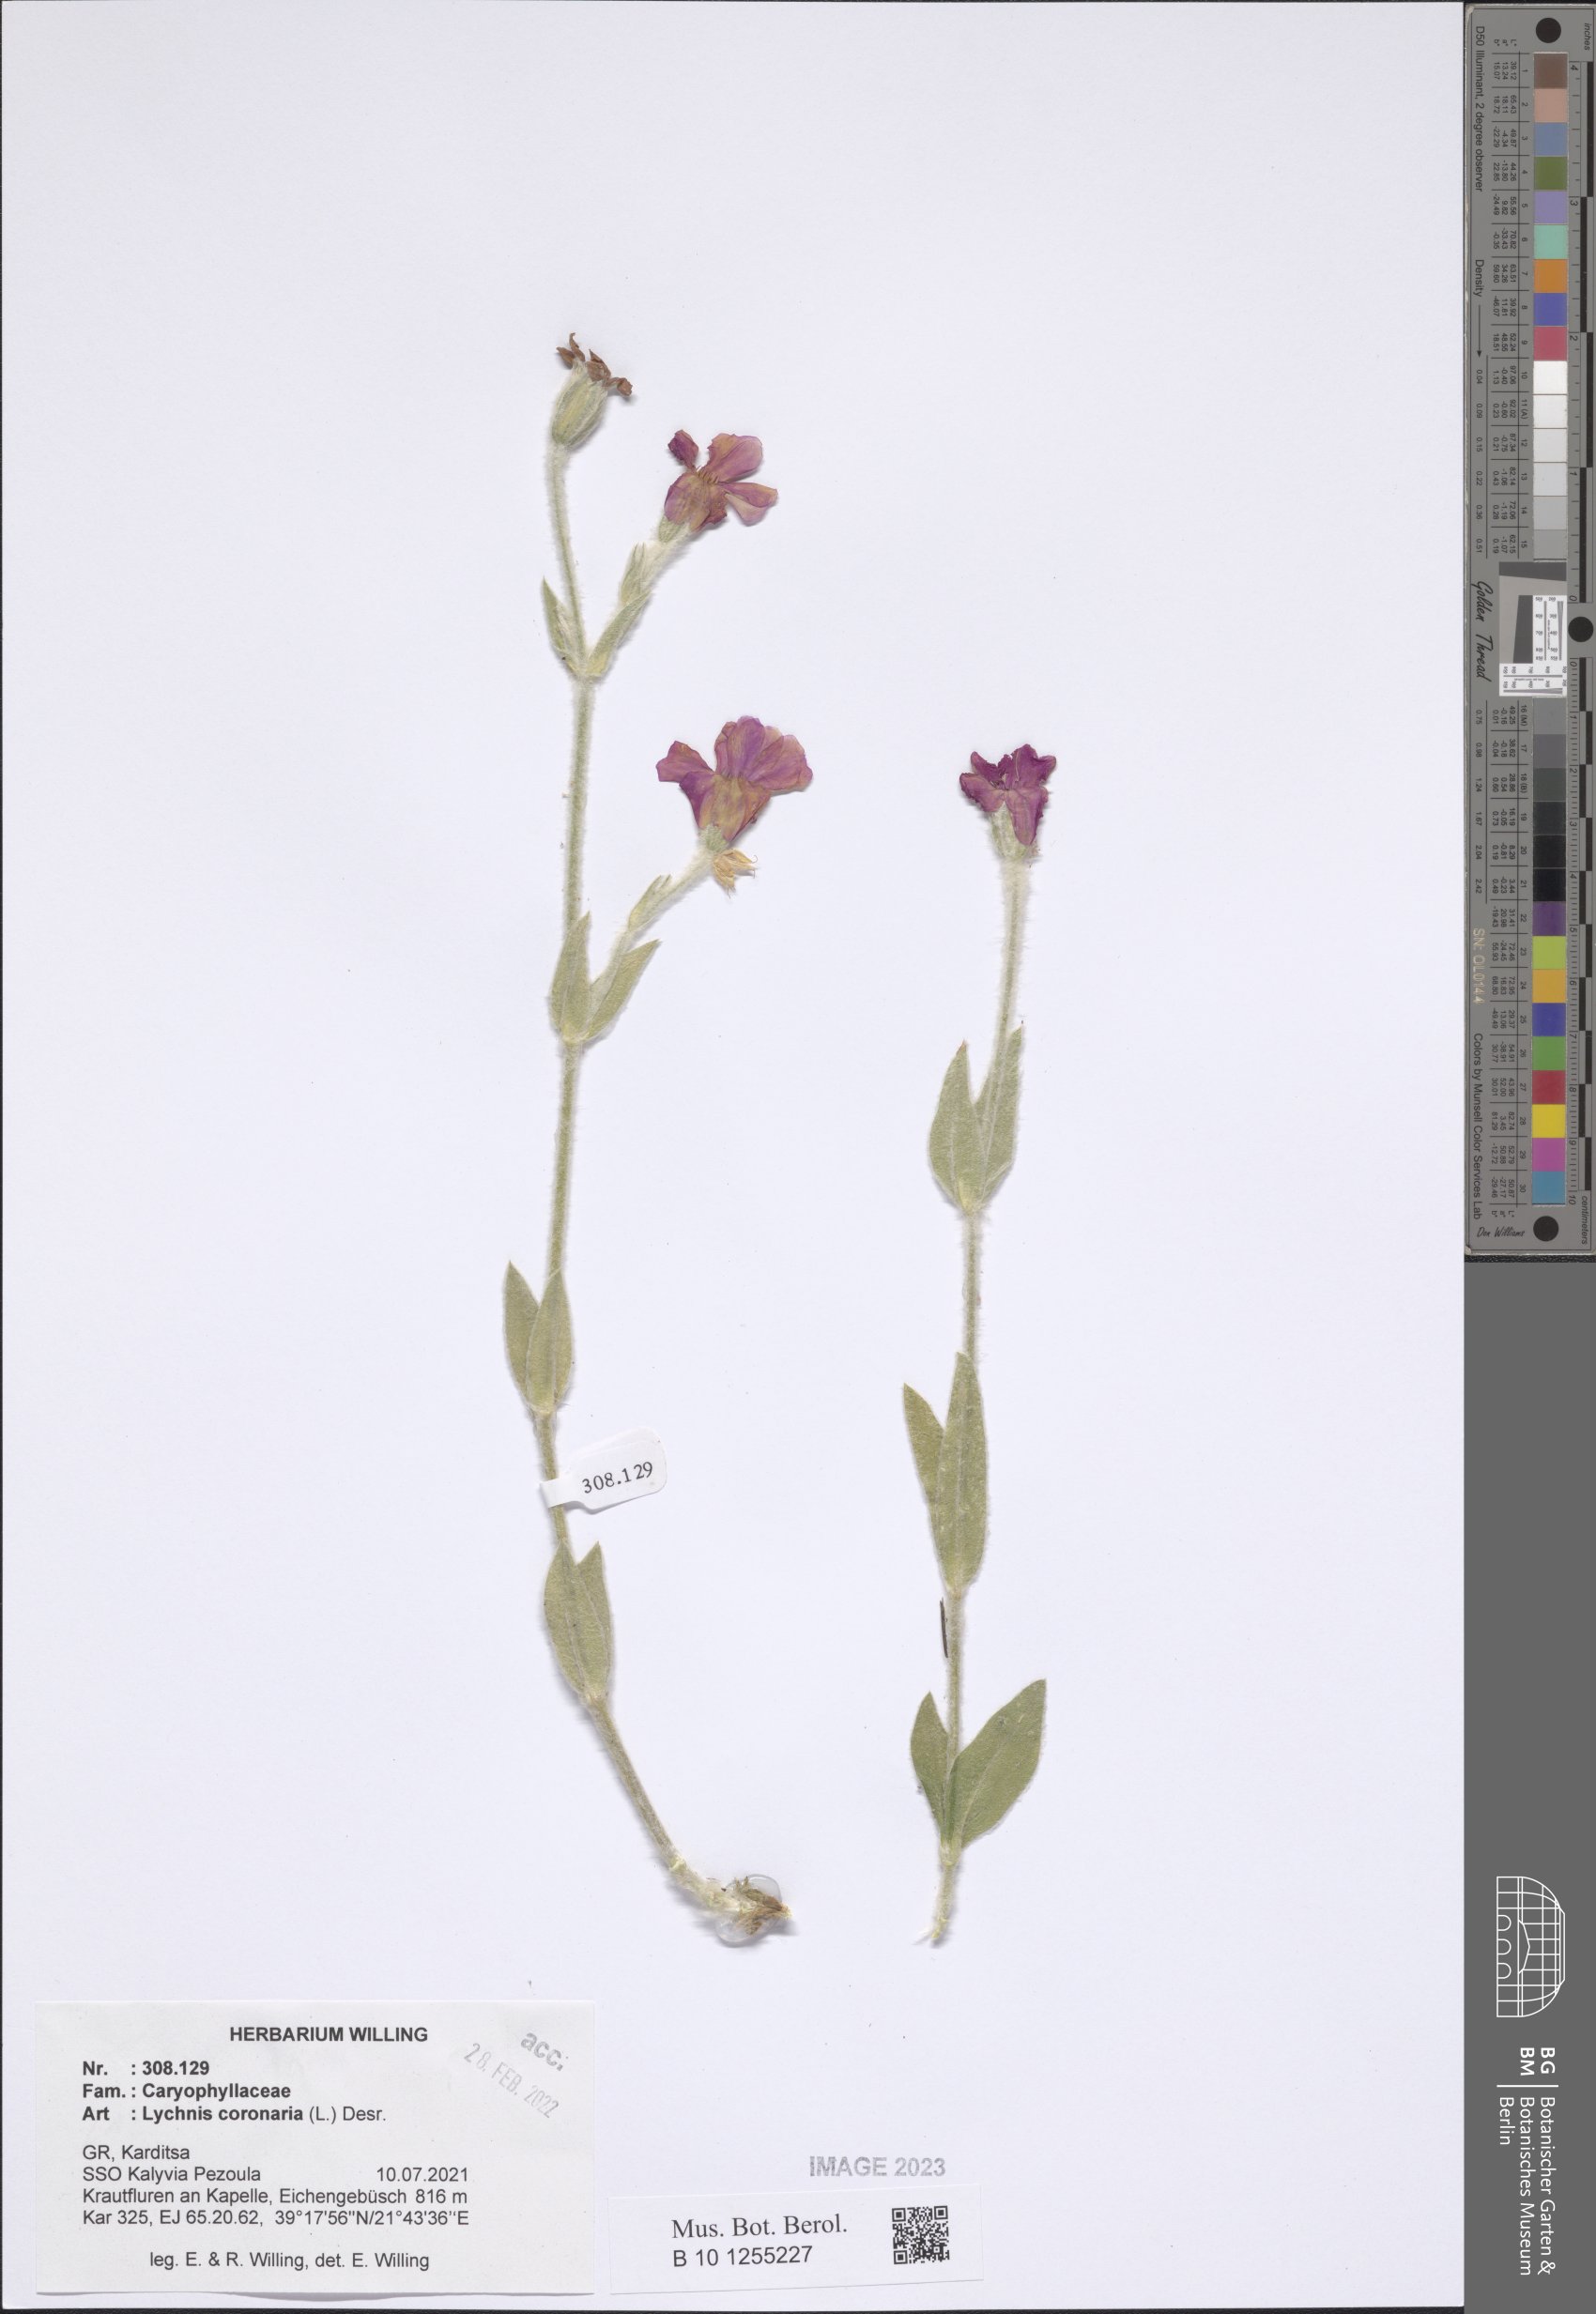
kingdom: Plantae
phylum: Tracheophyta
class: Magnoliopsida
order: Caryophyllales
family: Caryophyllaceae
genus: Silene
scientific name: Silene coronaria
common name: Rose campion
